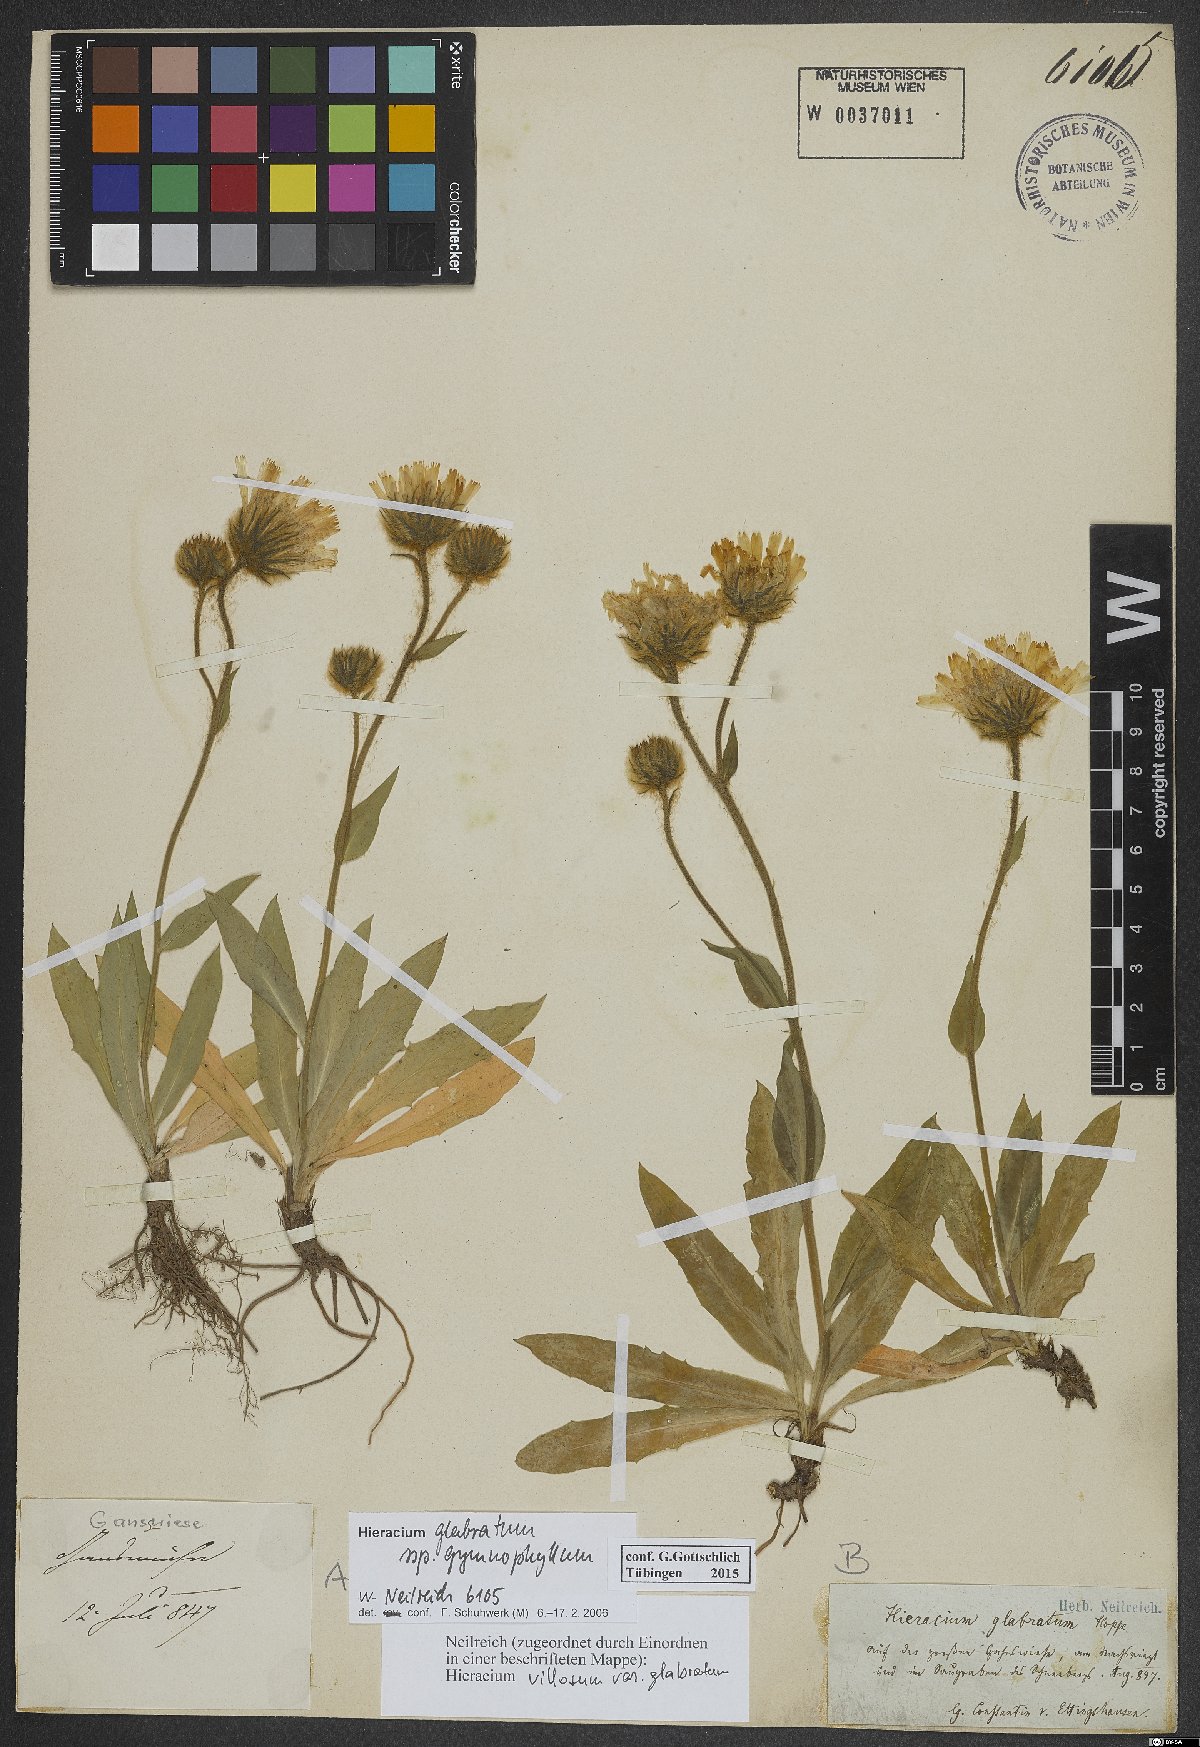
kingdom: Plantae
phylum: Tracheophyta
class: Magnoliopsida
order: Asterales
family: Asteraceae
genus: Hieracium
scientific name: Hieracium glabratum
